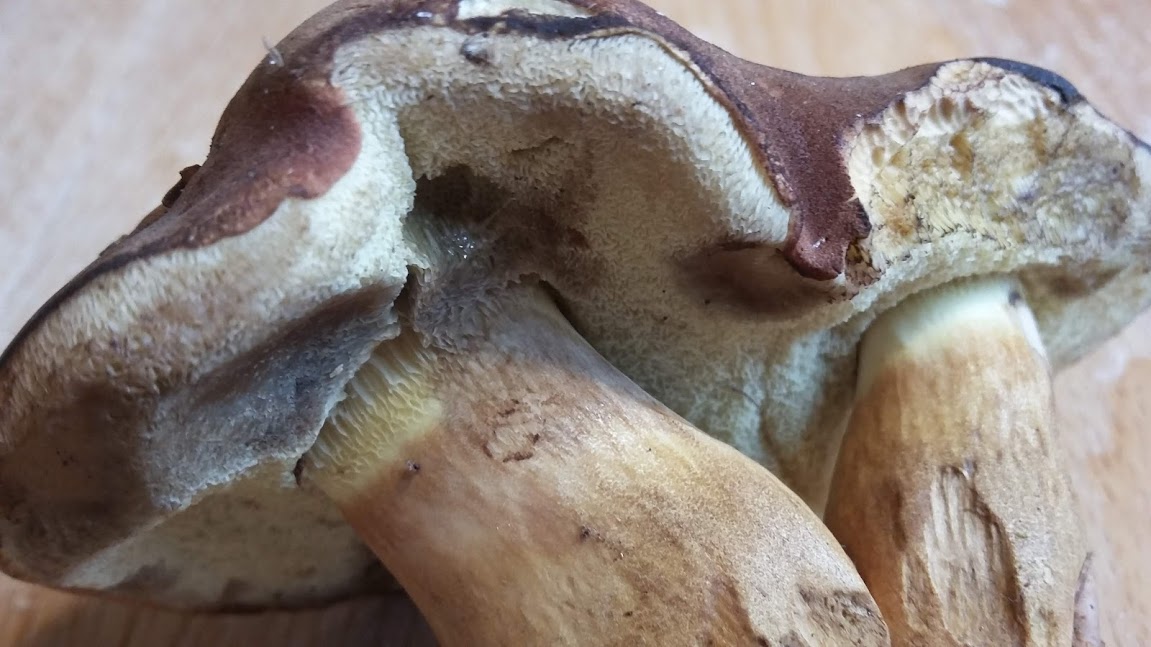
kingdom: Fungi
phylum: Basidiomycota
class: Agaricomycetes
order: Boletales
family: Boletaceae
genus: Imleria
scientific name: Imleria badia
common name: brunstokket rørhat
